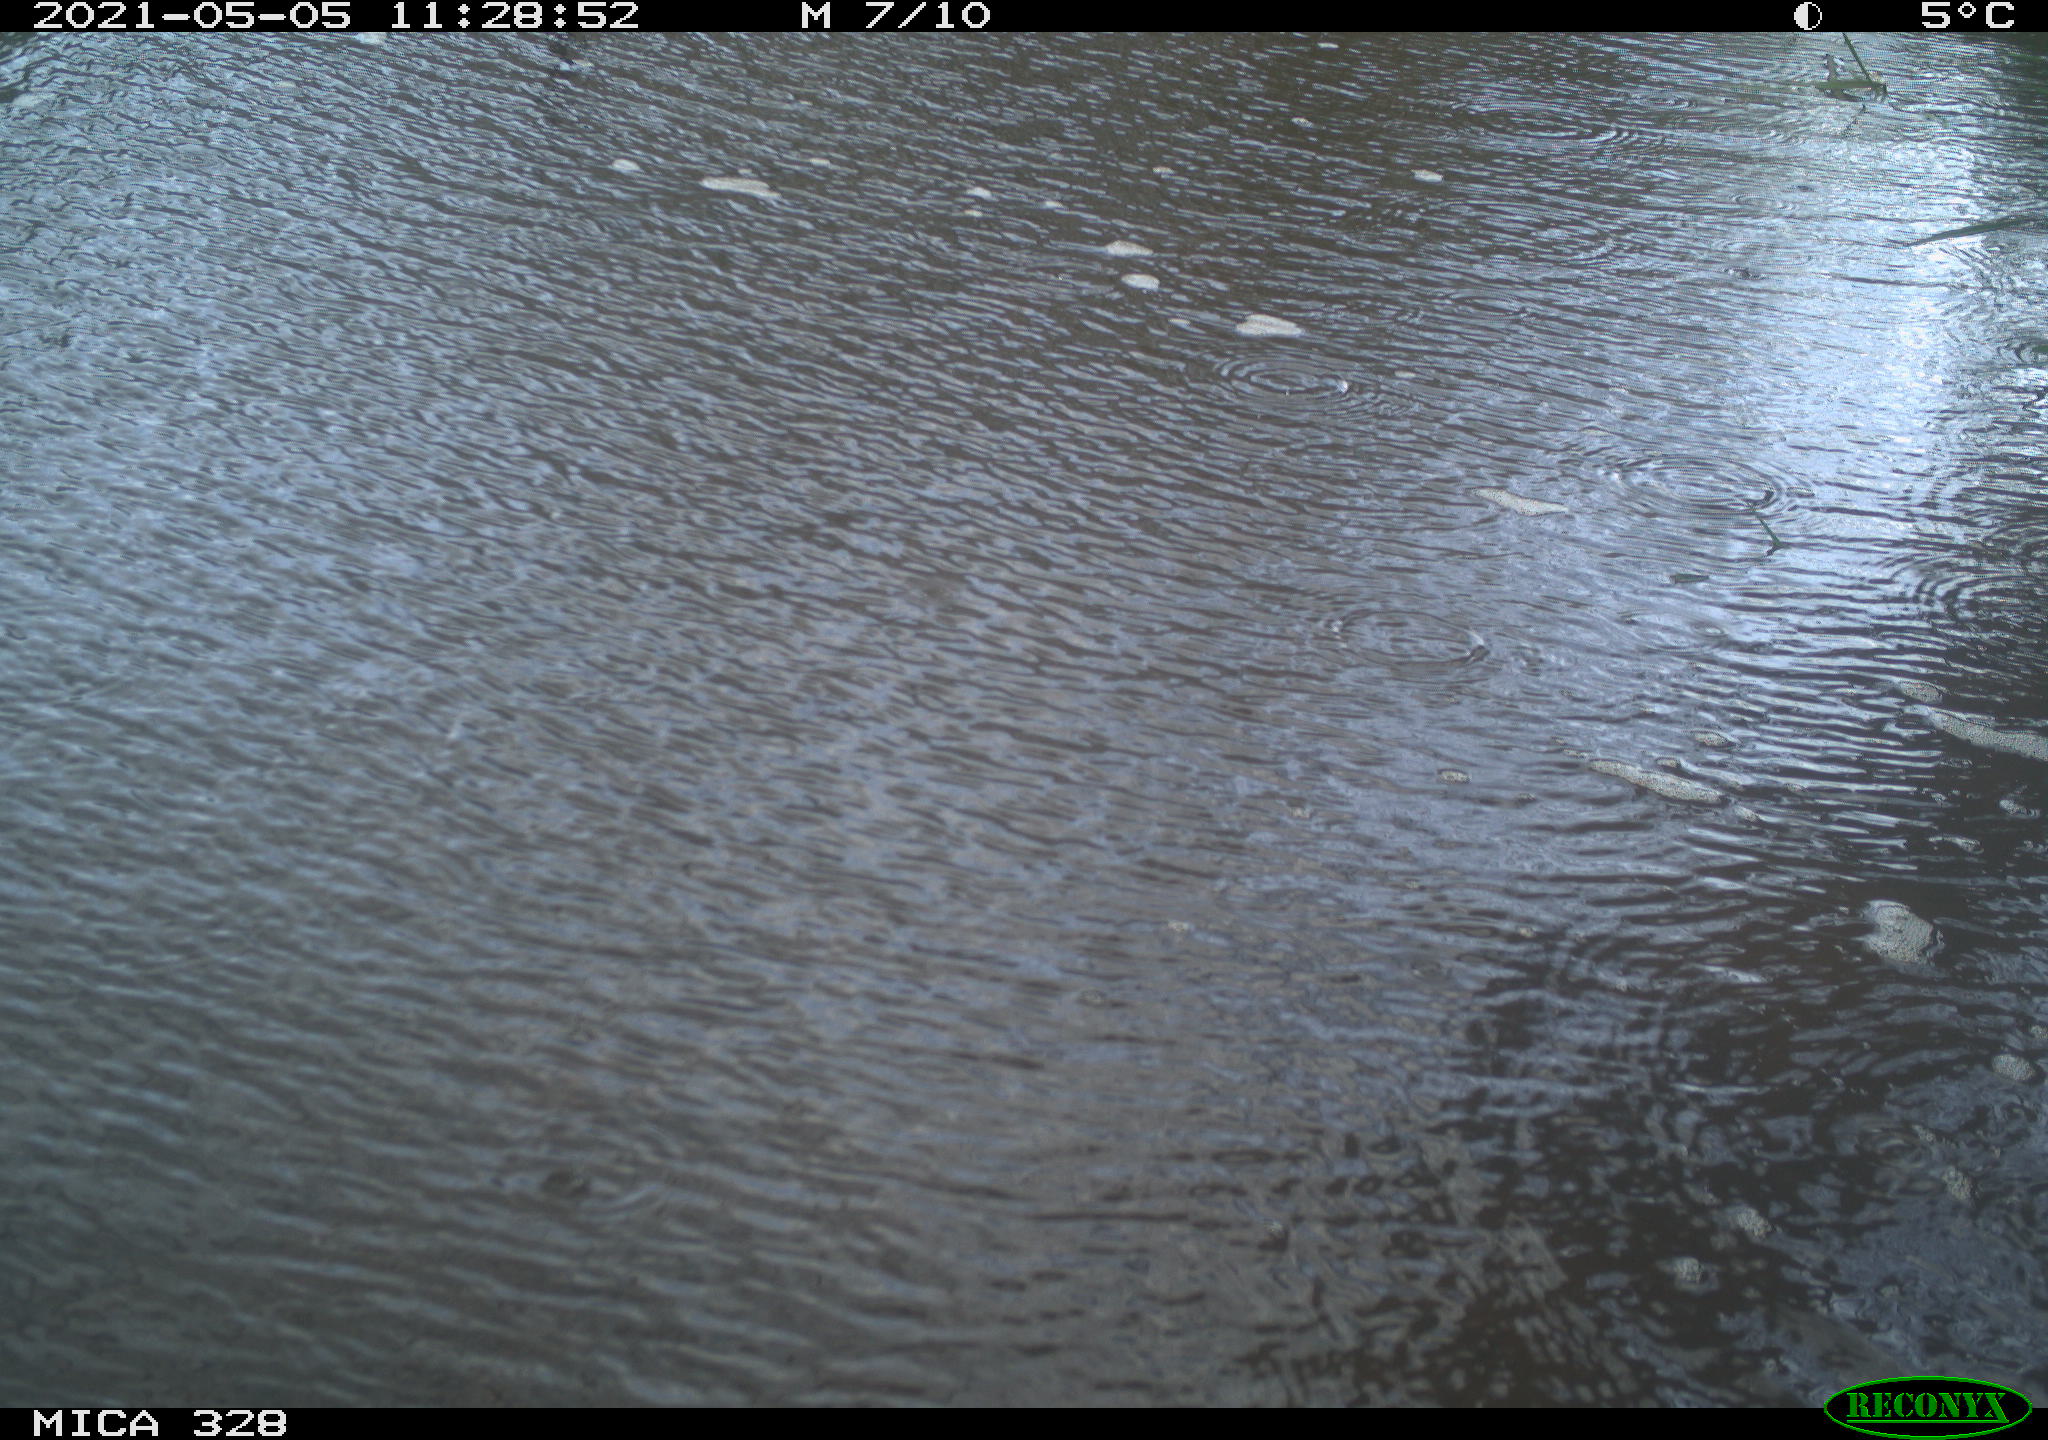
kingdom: Animalia
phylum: Chordata
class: Aves
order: Pelecaniformes
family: Ardeidae
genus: Ardea
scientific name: Ardea alba
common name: Great egret
